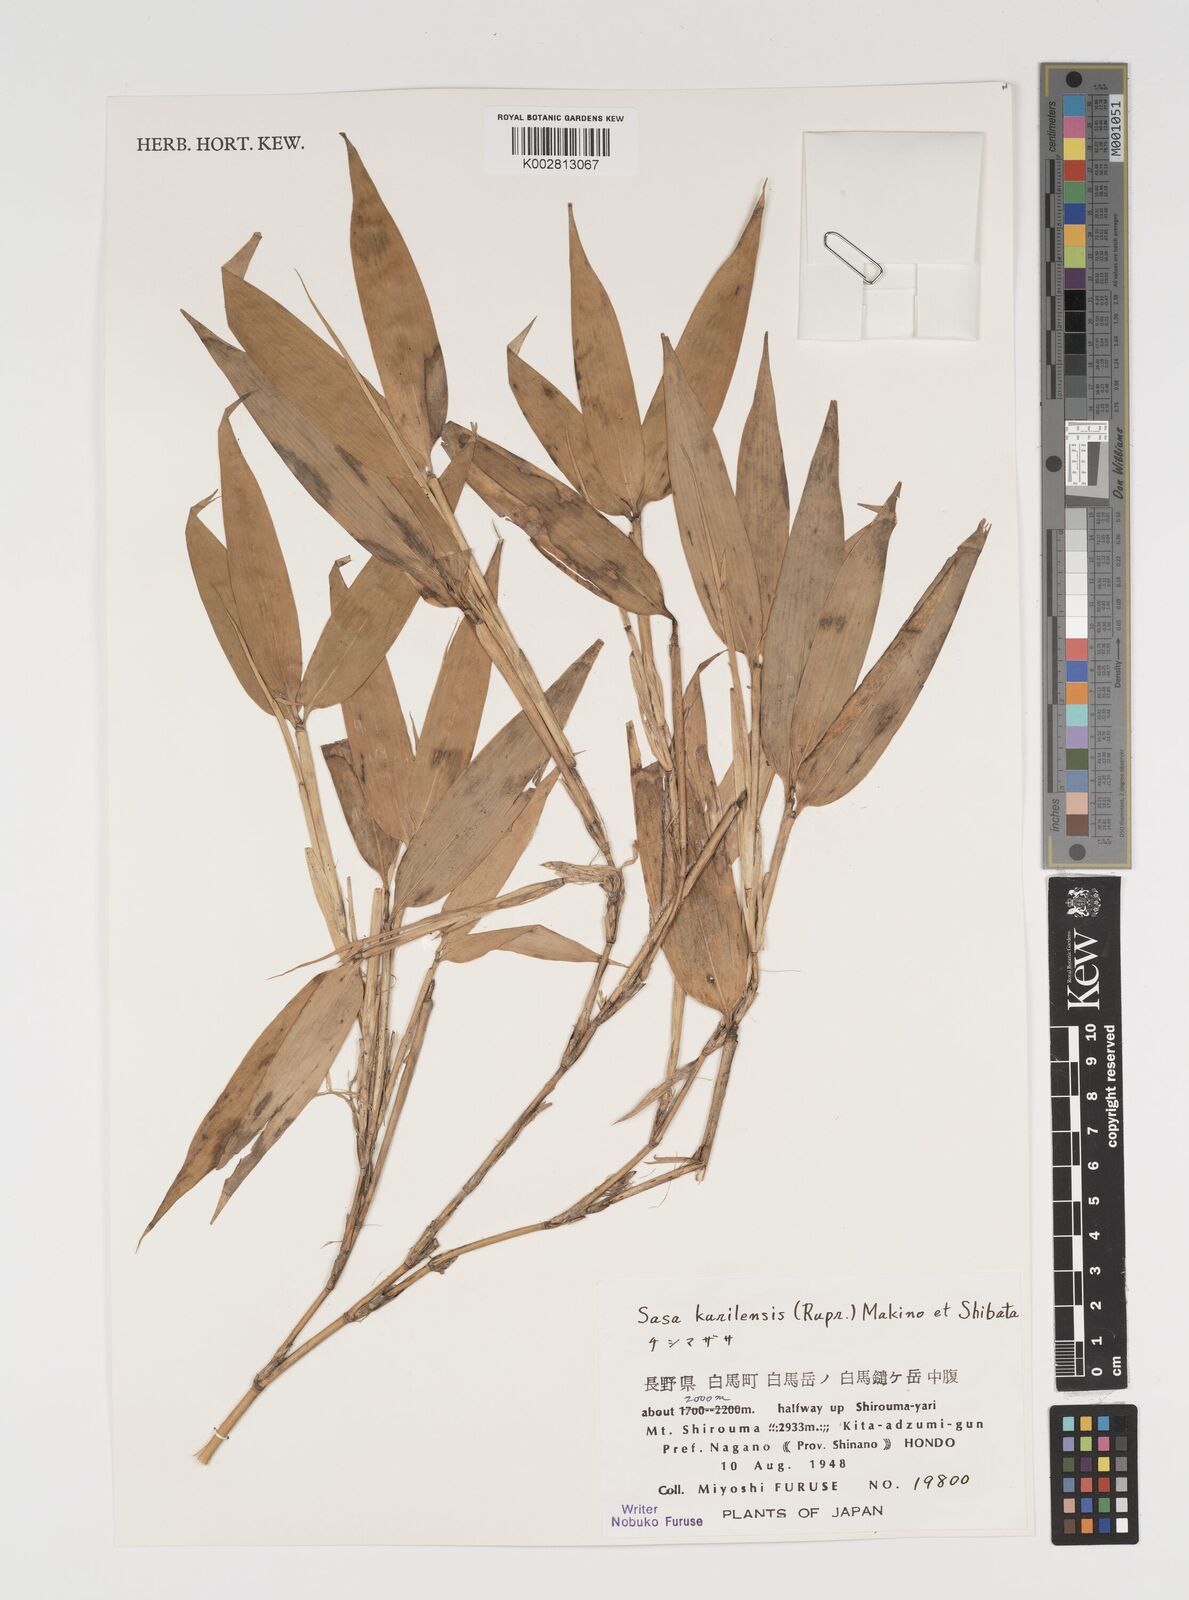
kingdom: Plantae
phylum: Tracheophyta
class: Liliopsida
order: Poales
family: Poaceae
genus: Sasa
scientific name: Sasa kurilensis
